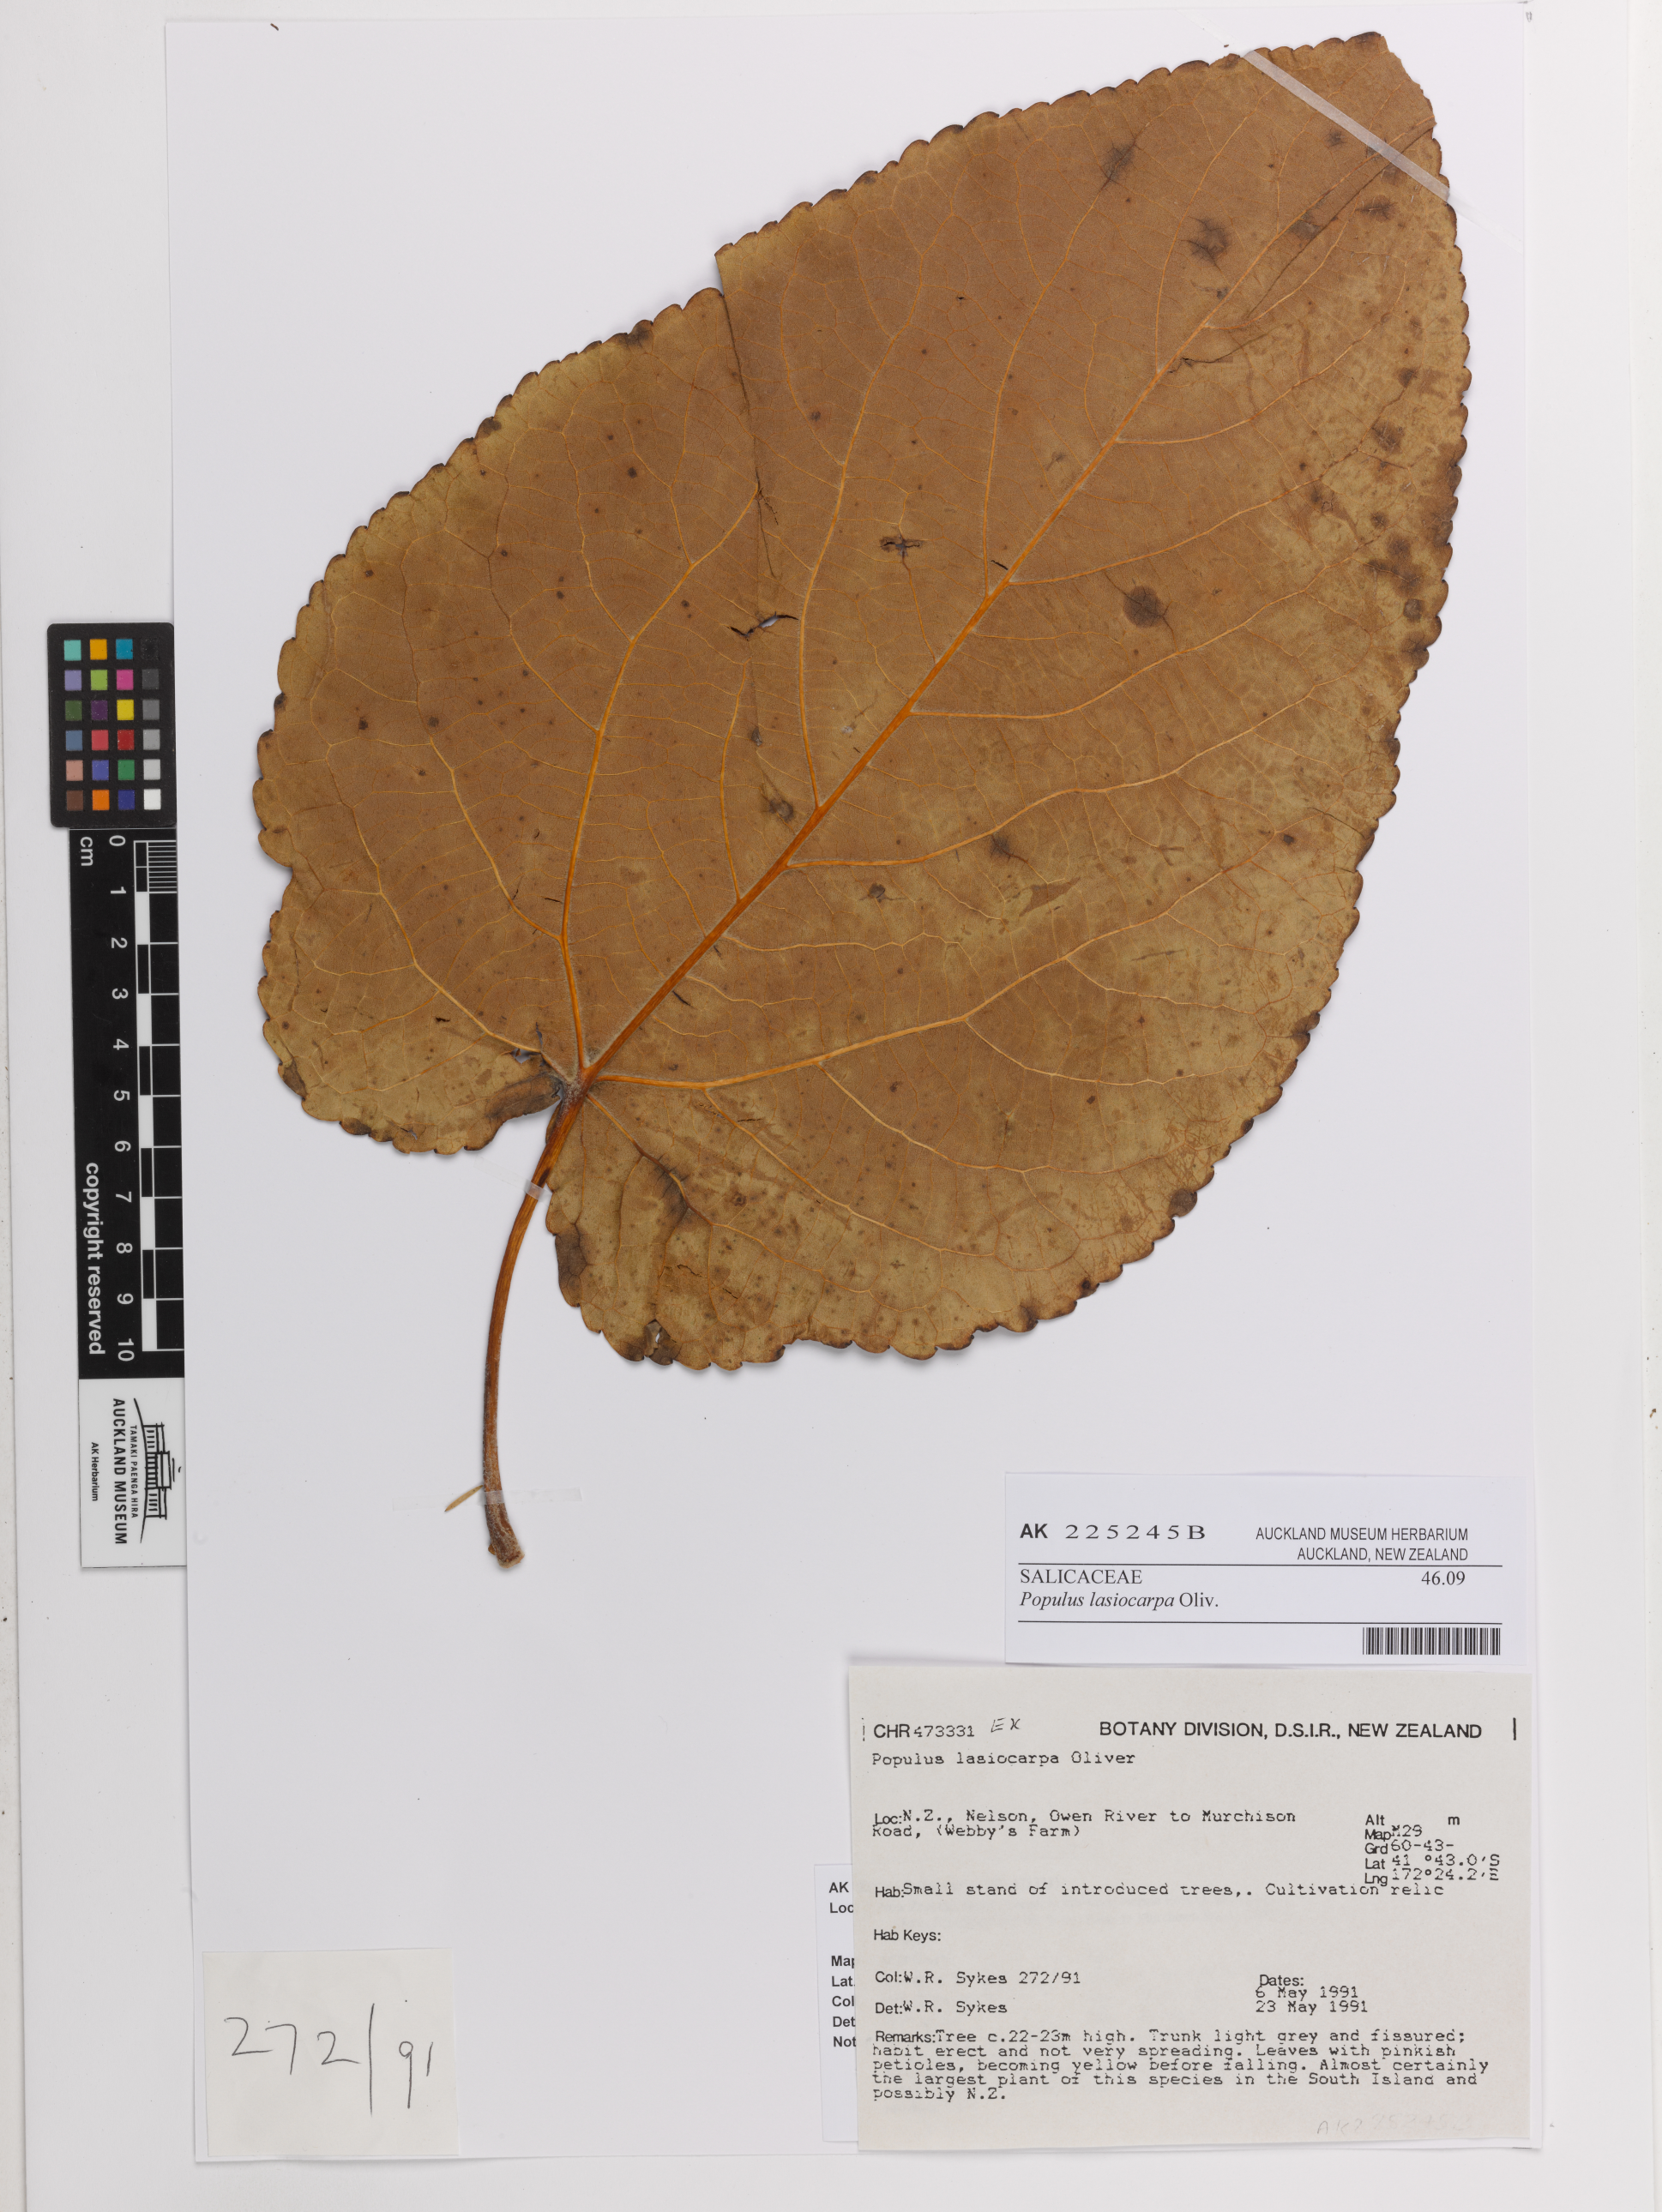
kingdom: Plantae
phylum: Tracheophyta
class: Magnoliopsida
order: Malpighiales
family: Salicaceae
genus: Populus
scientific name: Populus lasiocarpa
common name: Chinese necklace poplar
